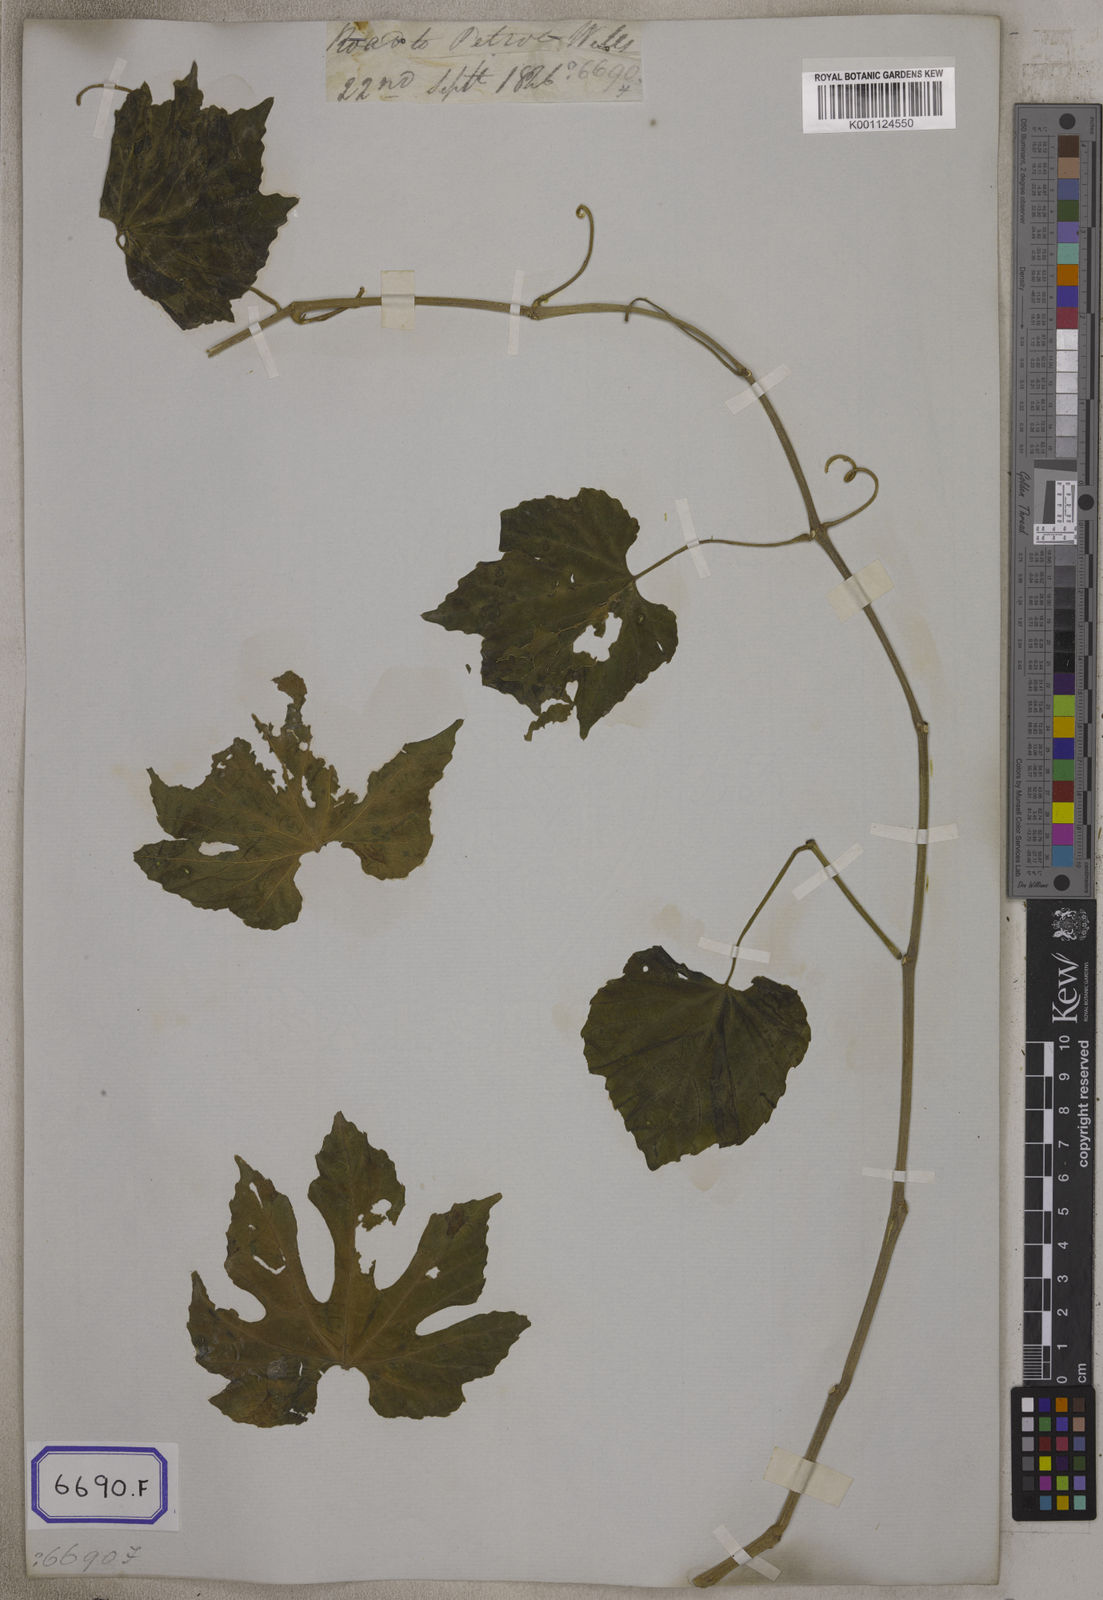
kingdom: Plantae
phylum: Tracheophyta
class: Magnoliopsida
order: Cucurbitales
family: Cucurbitaceae
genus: Trichosanthes
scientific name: Trichosanthes
